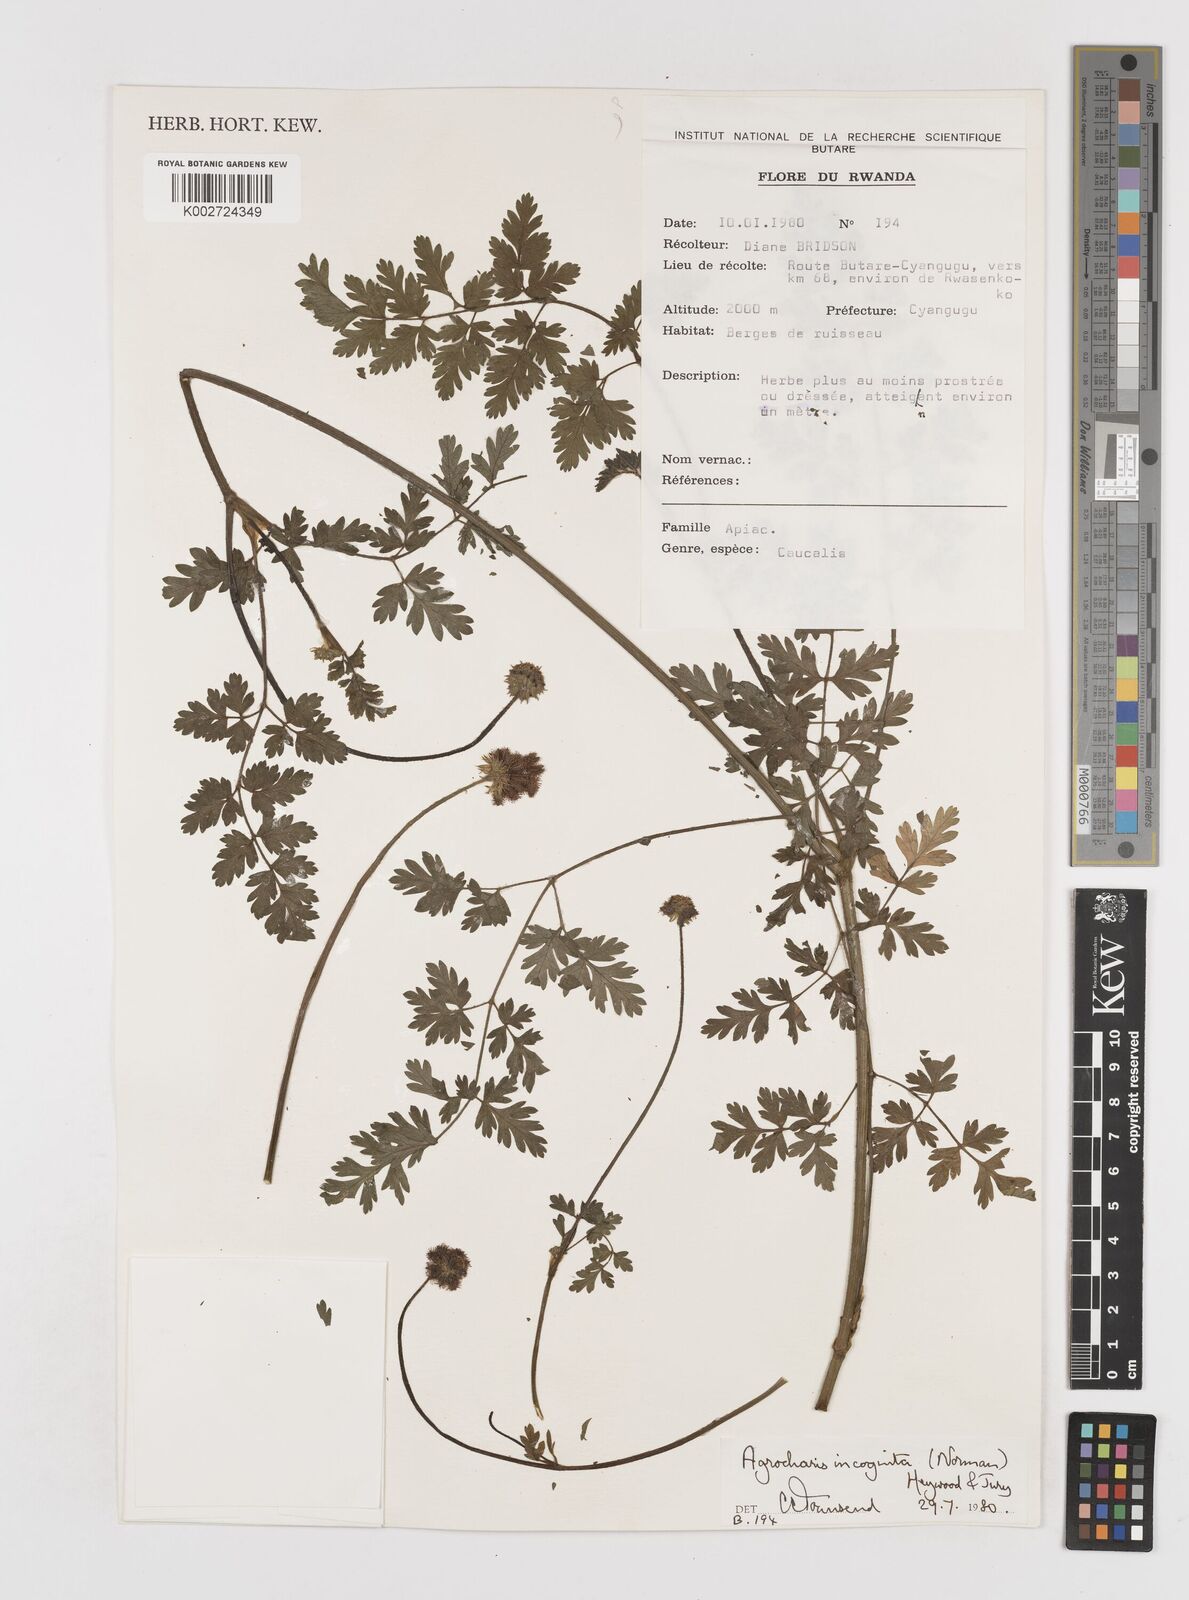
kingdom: Plantae
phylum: Tracheophyta
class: Magnoliopsida
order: Apiales
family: Apiaceae
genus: Daucus
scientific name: Daucus incognitus
